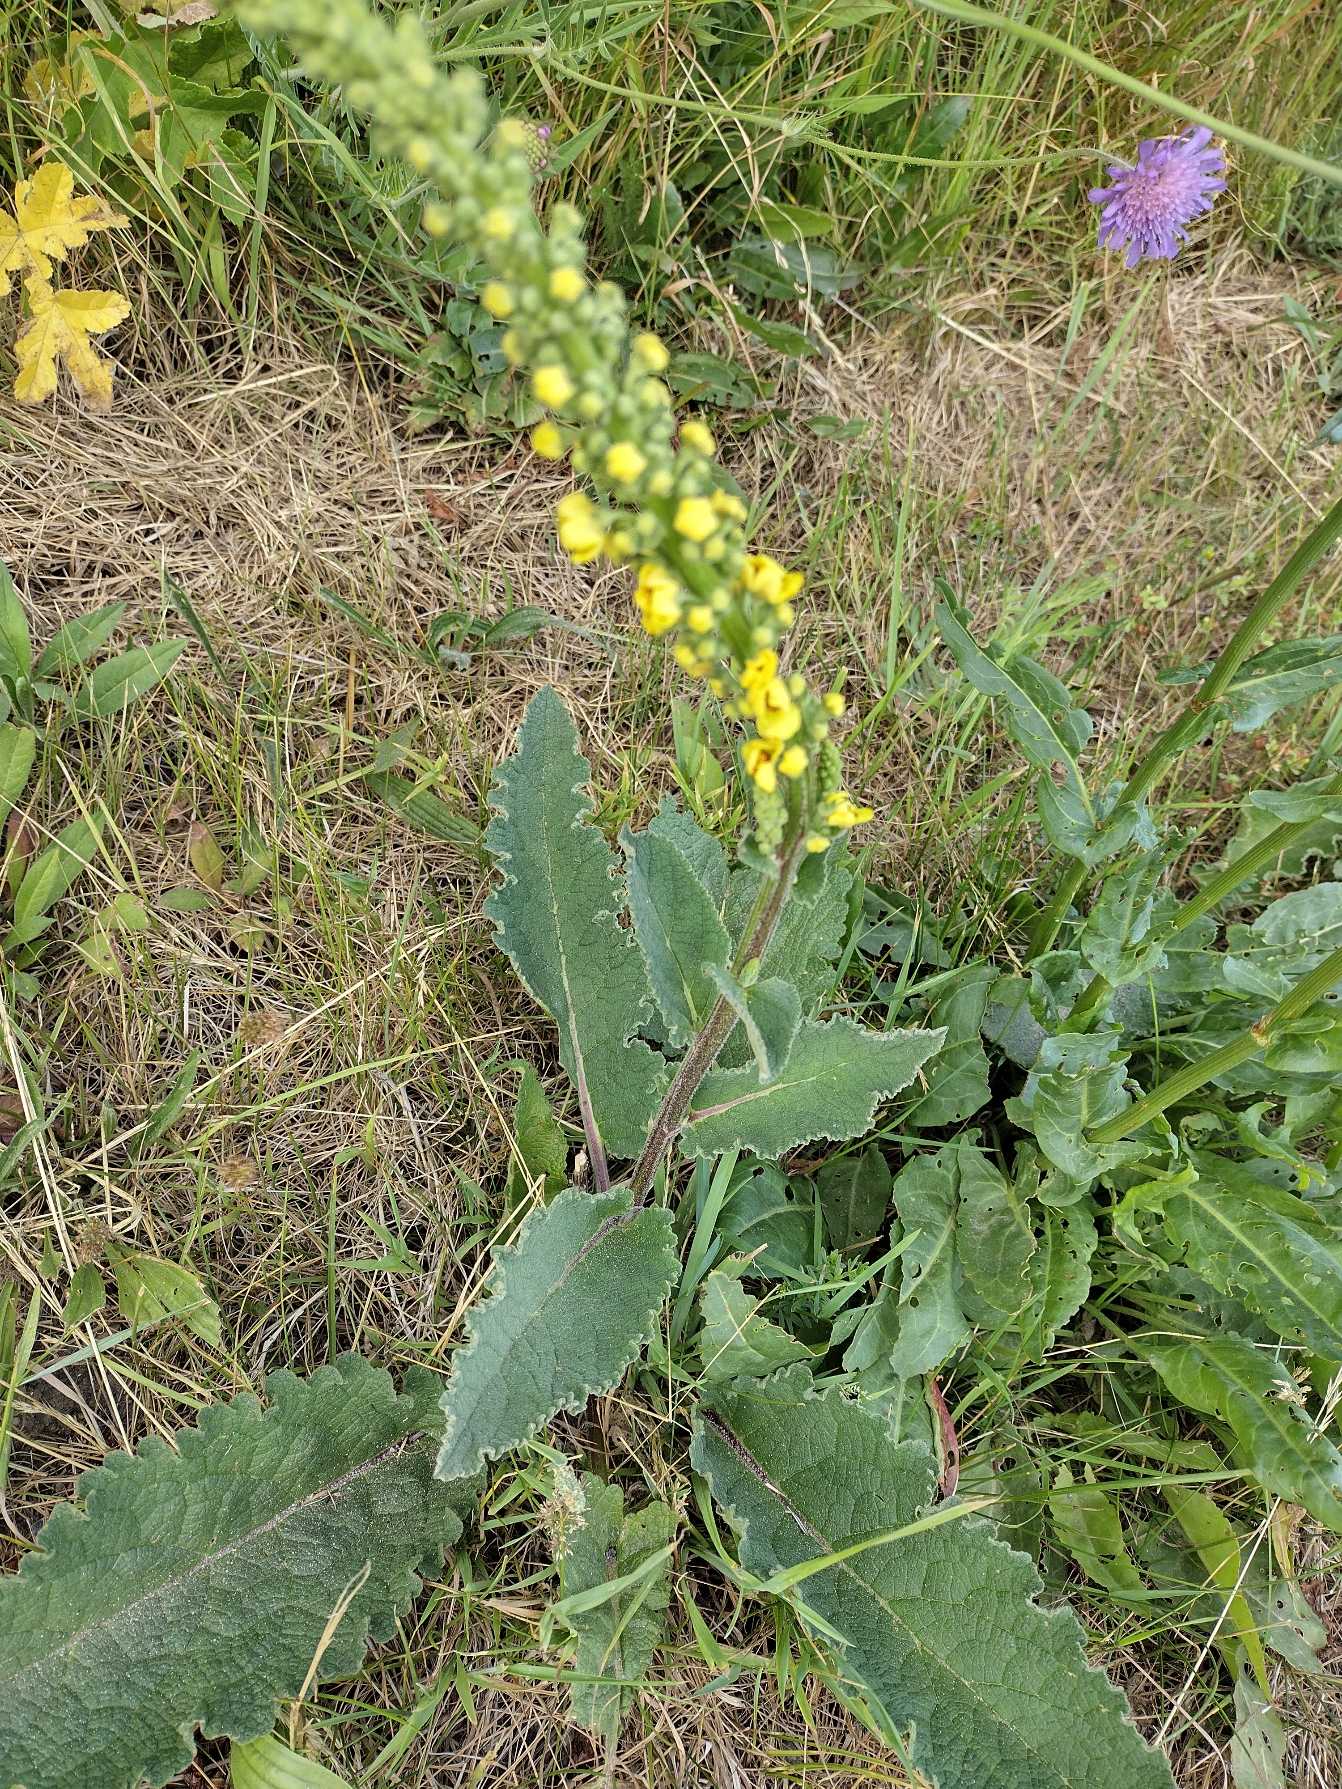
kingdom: Plantae
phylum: Tracheophyta
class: Magnoliopsida
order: Lamiales
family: Scrophulariaceae
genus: Verbascum
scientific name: Verbascum nigrum
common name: Mørk kongelys
